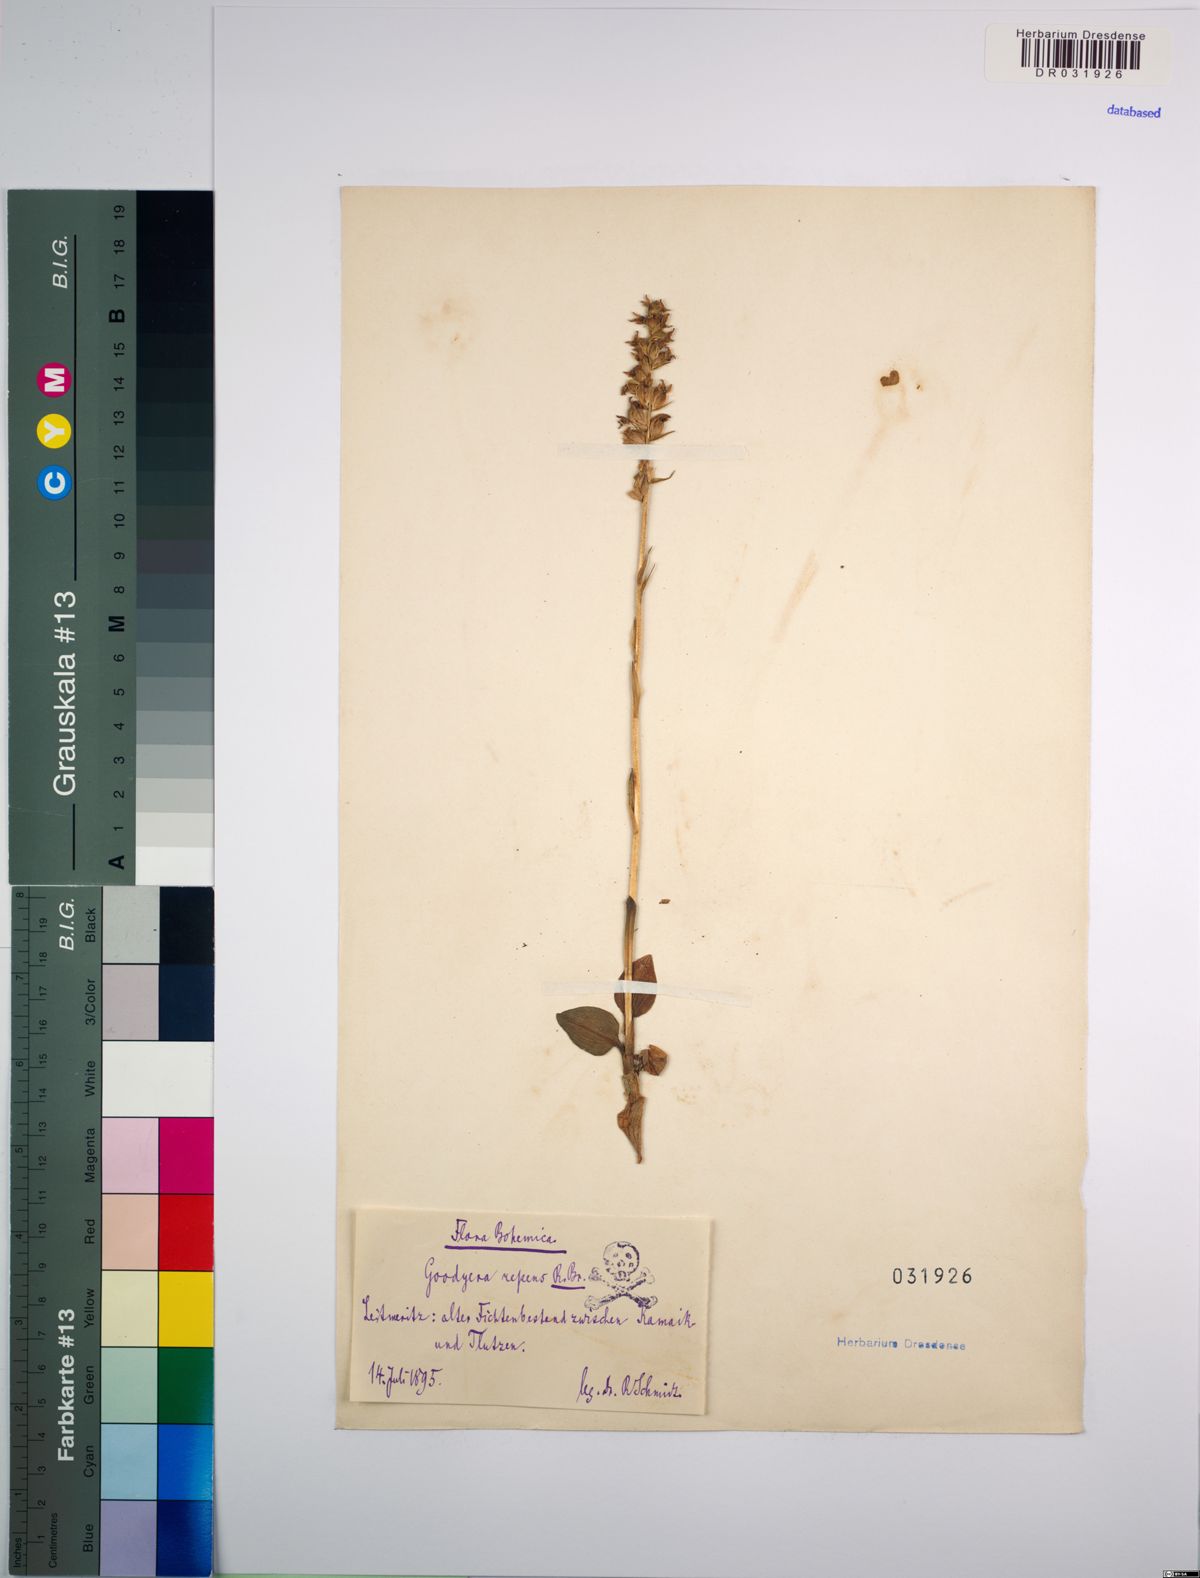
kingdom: Plantae
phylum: Tracheophyta
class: Liliopsida
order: Asparagales
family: Orchidaceae
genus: Goodyera
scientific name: Goodyera repens
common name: Creeping lady's-tresses
